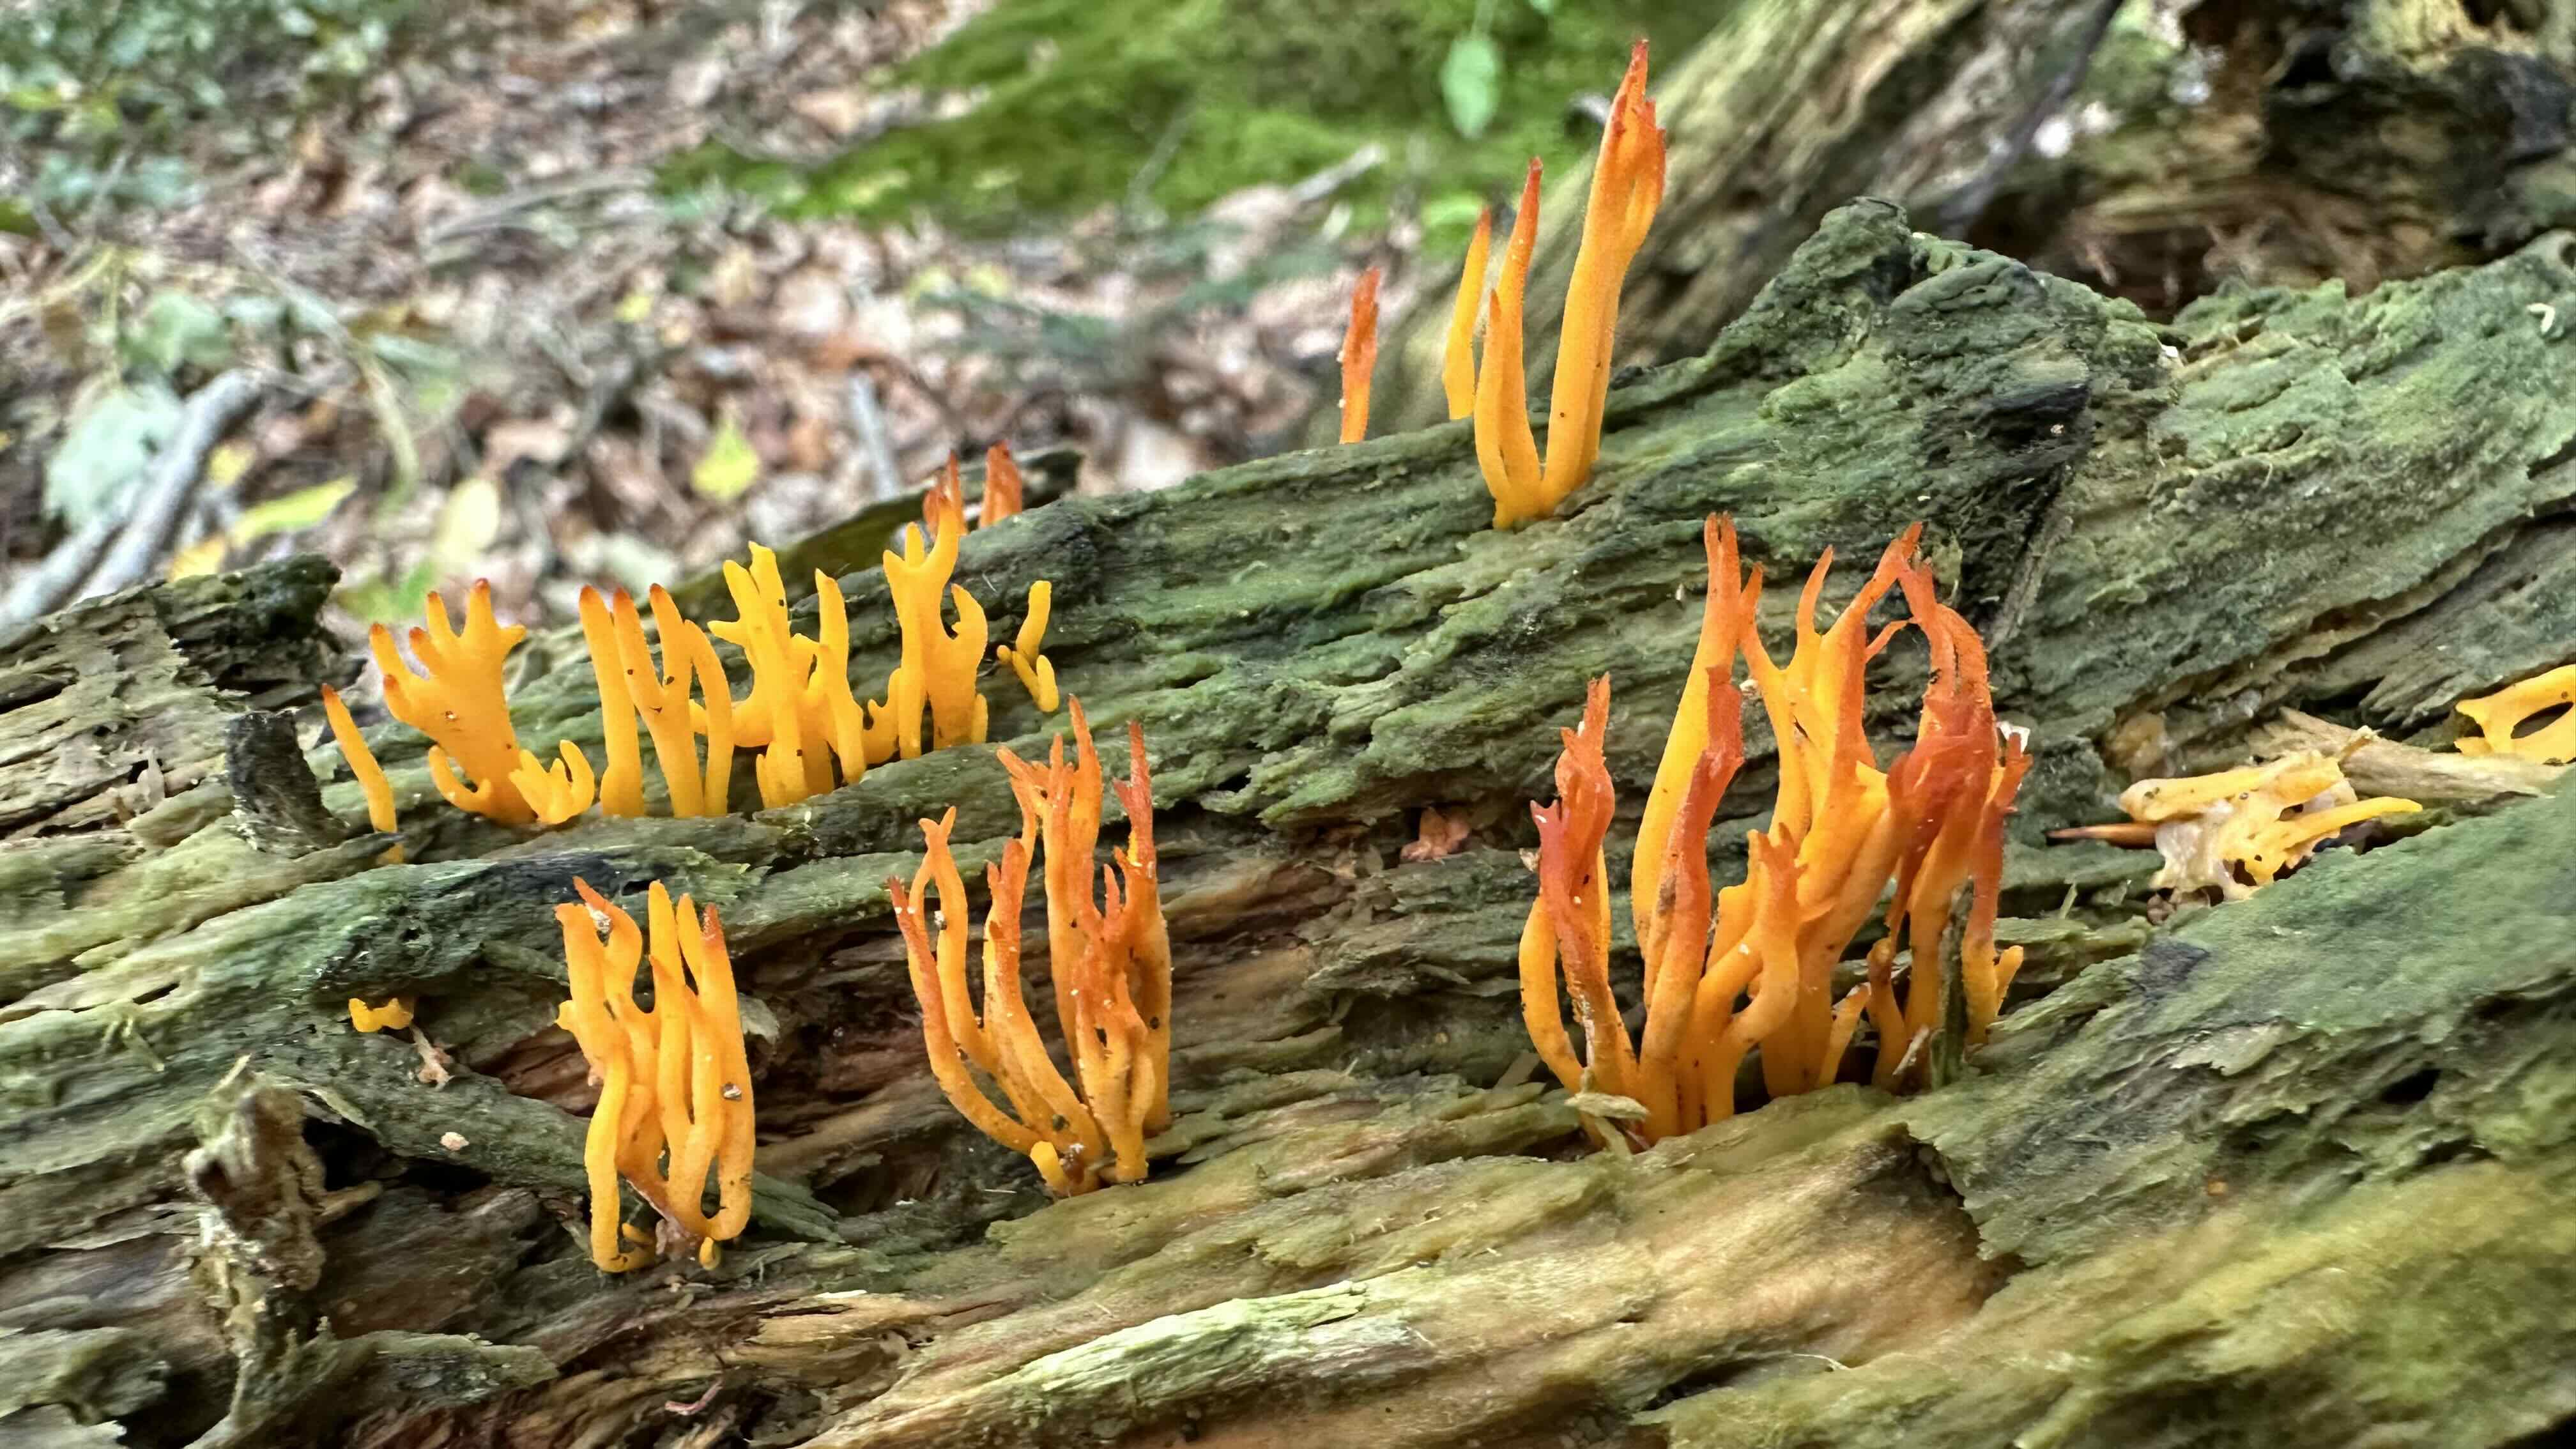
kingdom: Fungi
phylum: Basidiomycota
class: Dacrymycetes
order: Dacrymycetales
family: Dacrymycetaceae
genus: Calocera
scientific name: Calocera viscosa
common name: almindelig guldgaffel
